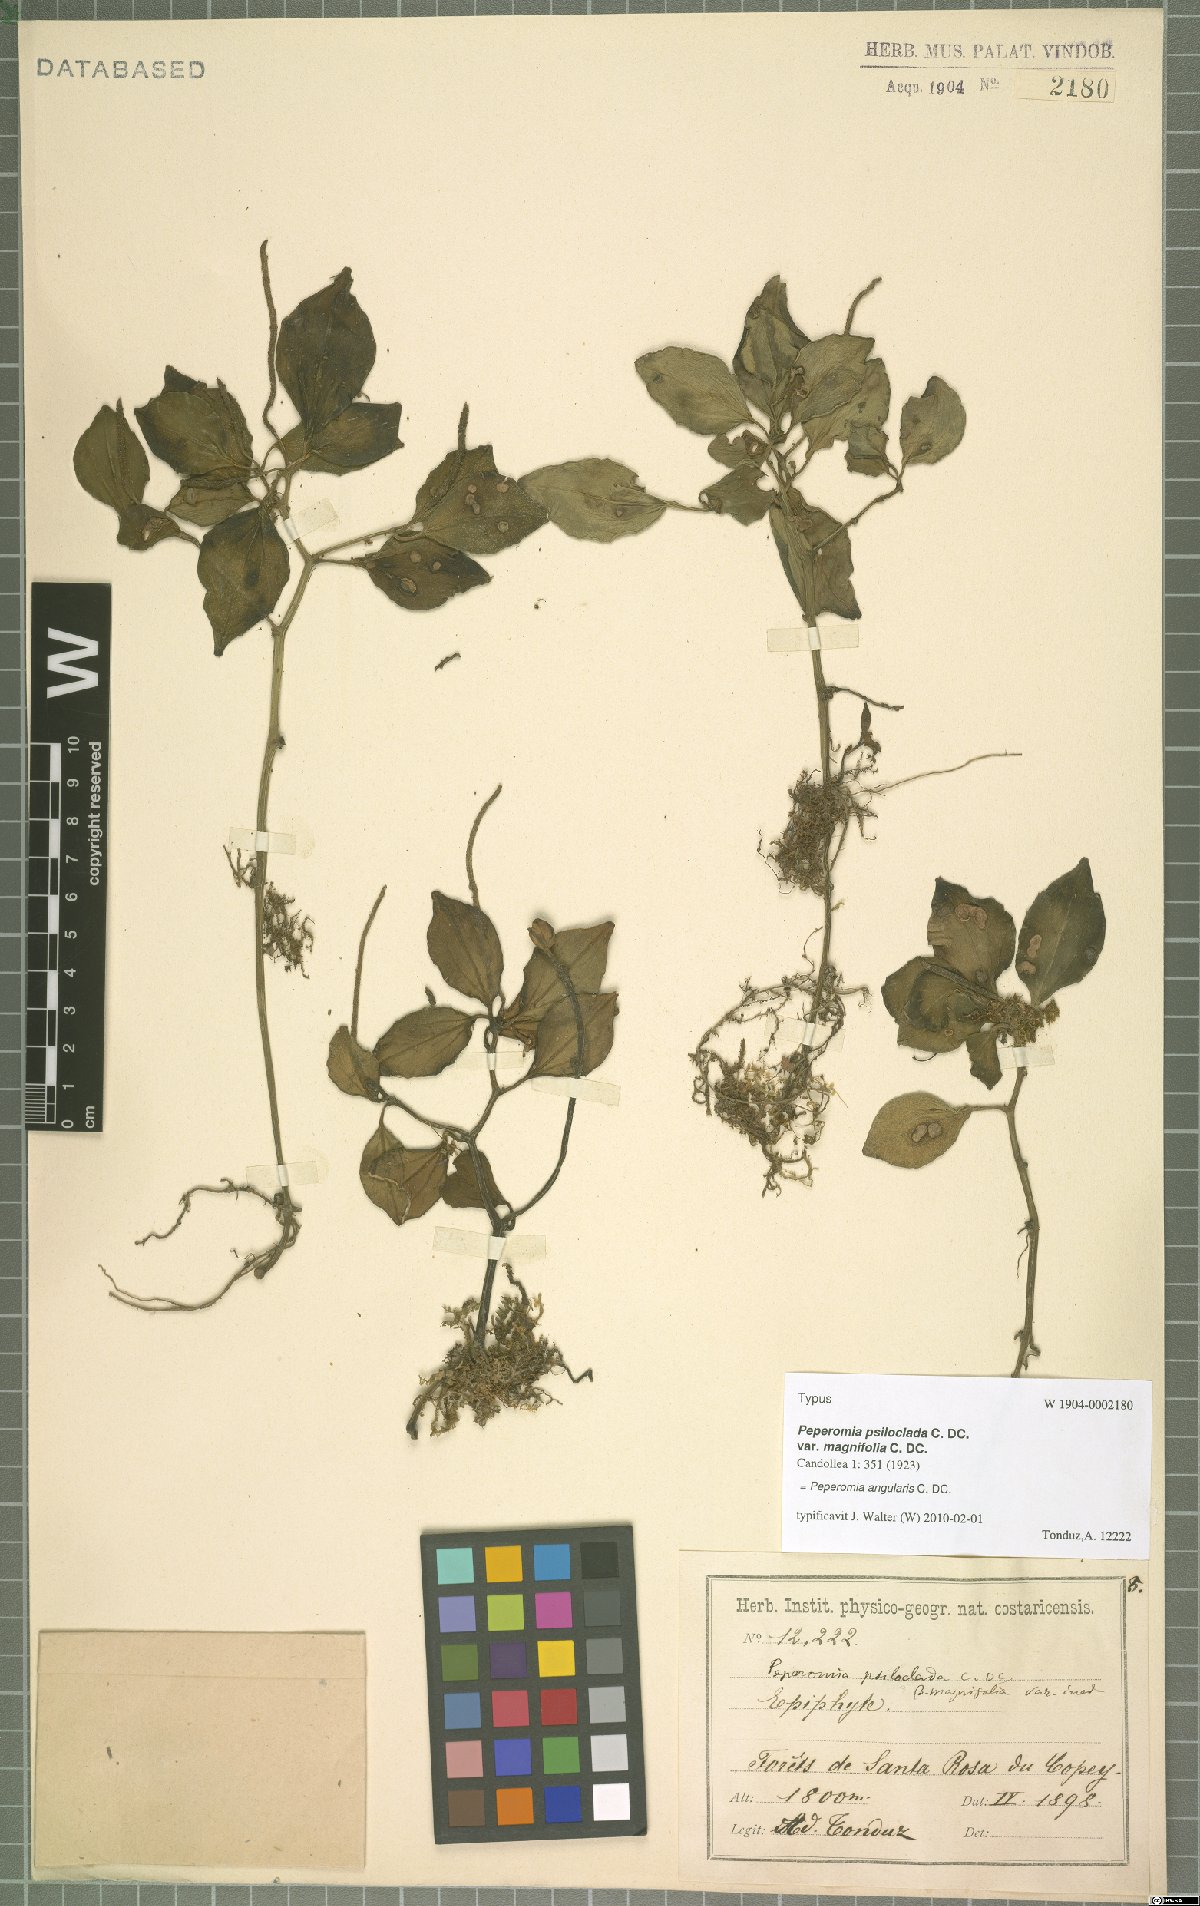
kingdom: Plantae
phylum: Tracheophyta
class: Magnoliopsida
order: Piperales
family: Piperaceae
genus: Peperomia
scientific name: Peperomia angularis
